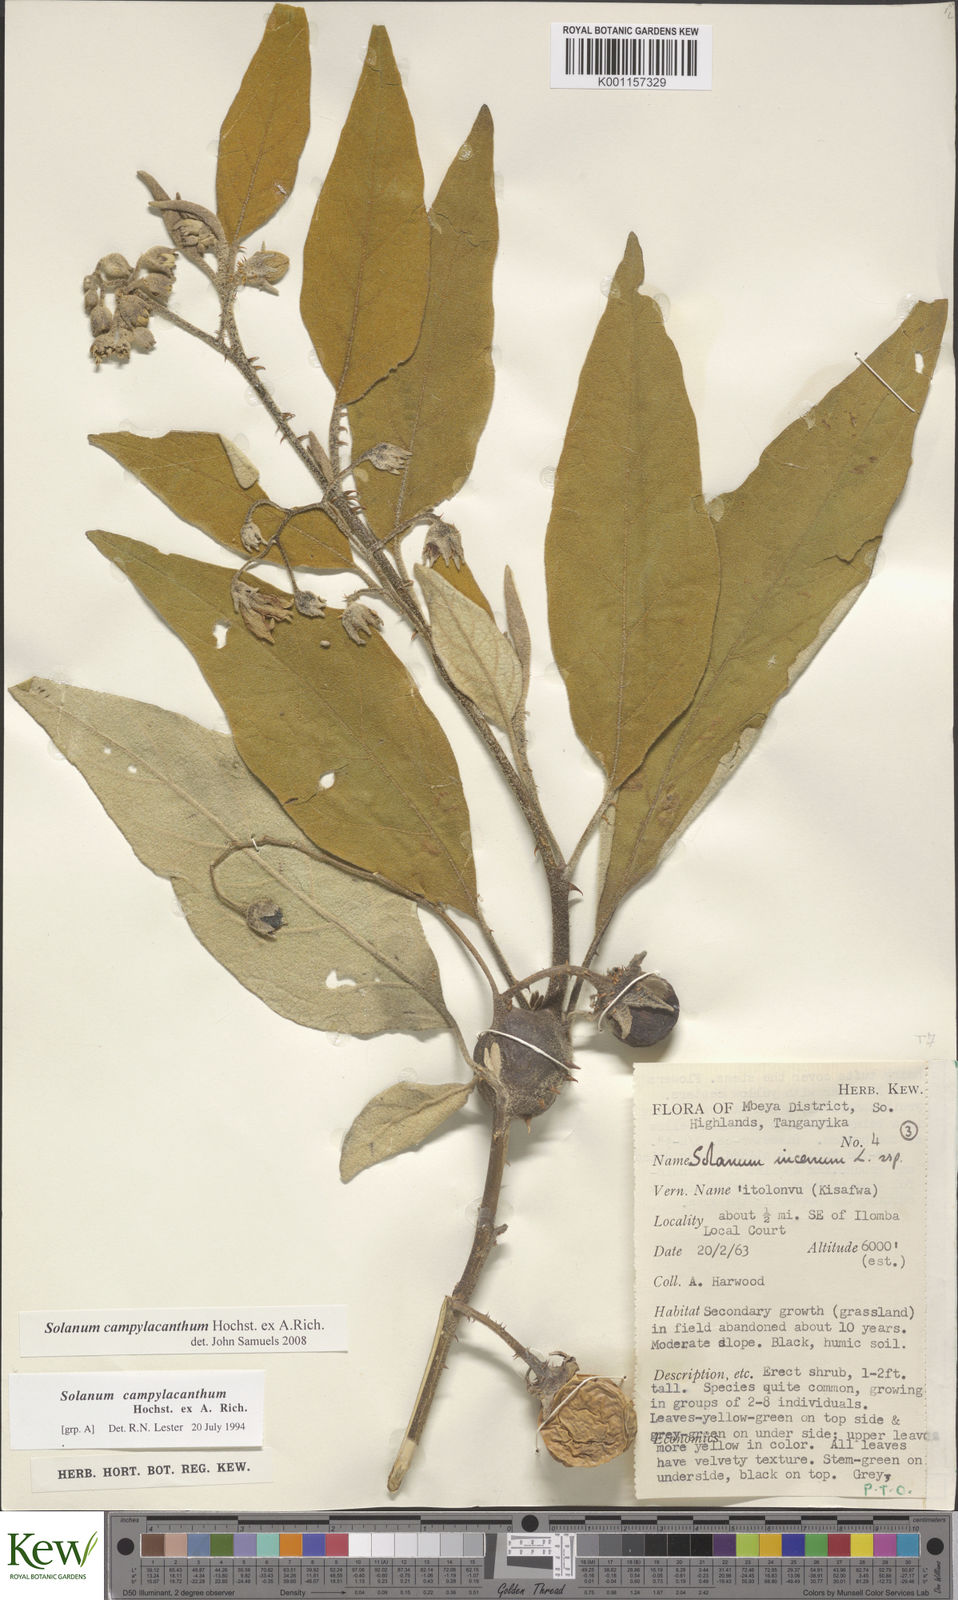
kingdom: Plantae
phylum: Tracheophyta
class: Magnoliopsida
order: Solanales
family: Solanaceae
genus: Solanum
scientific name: Solanum campylacanthum
